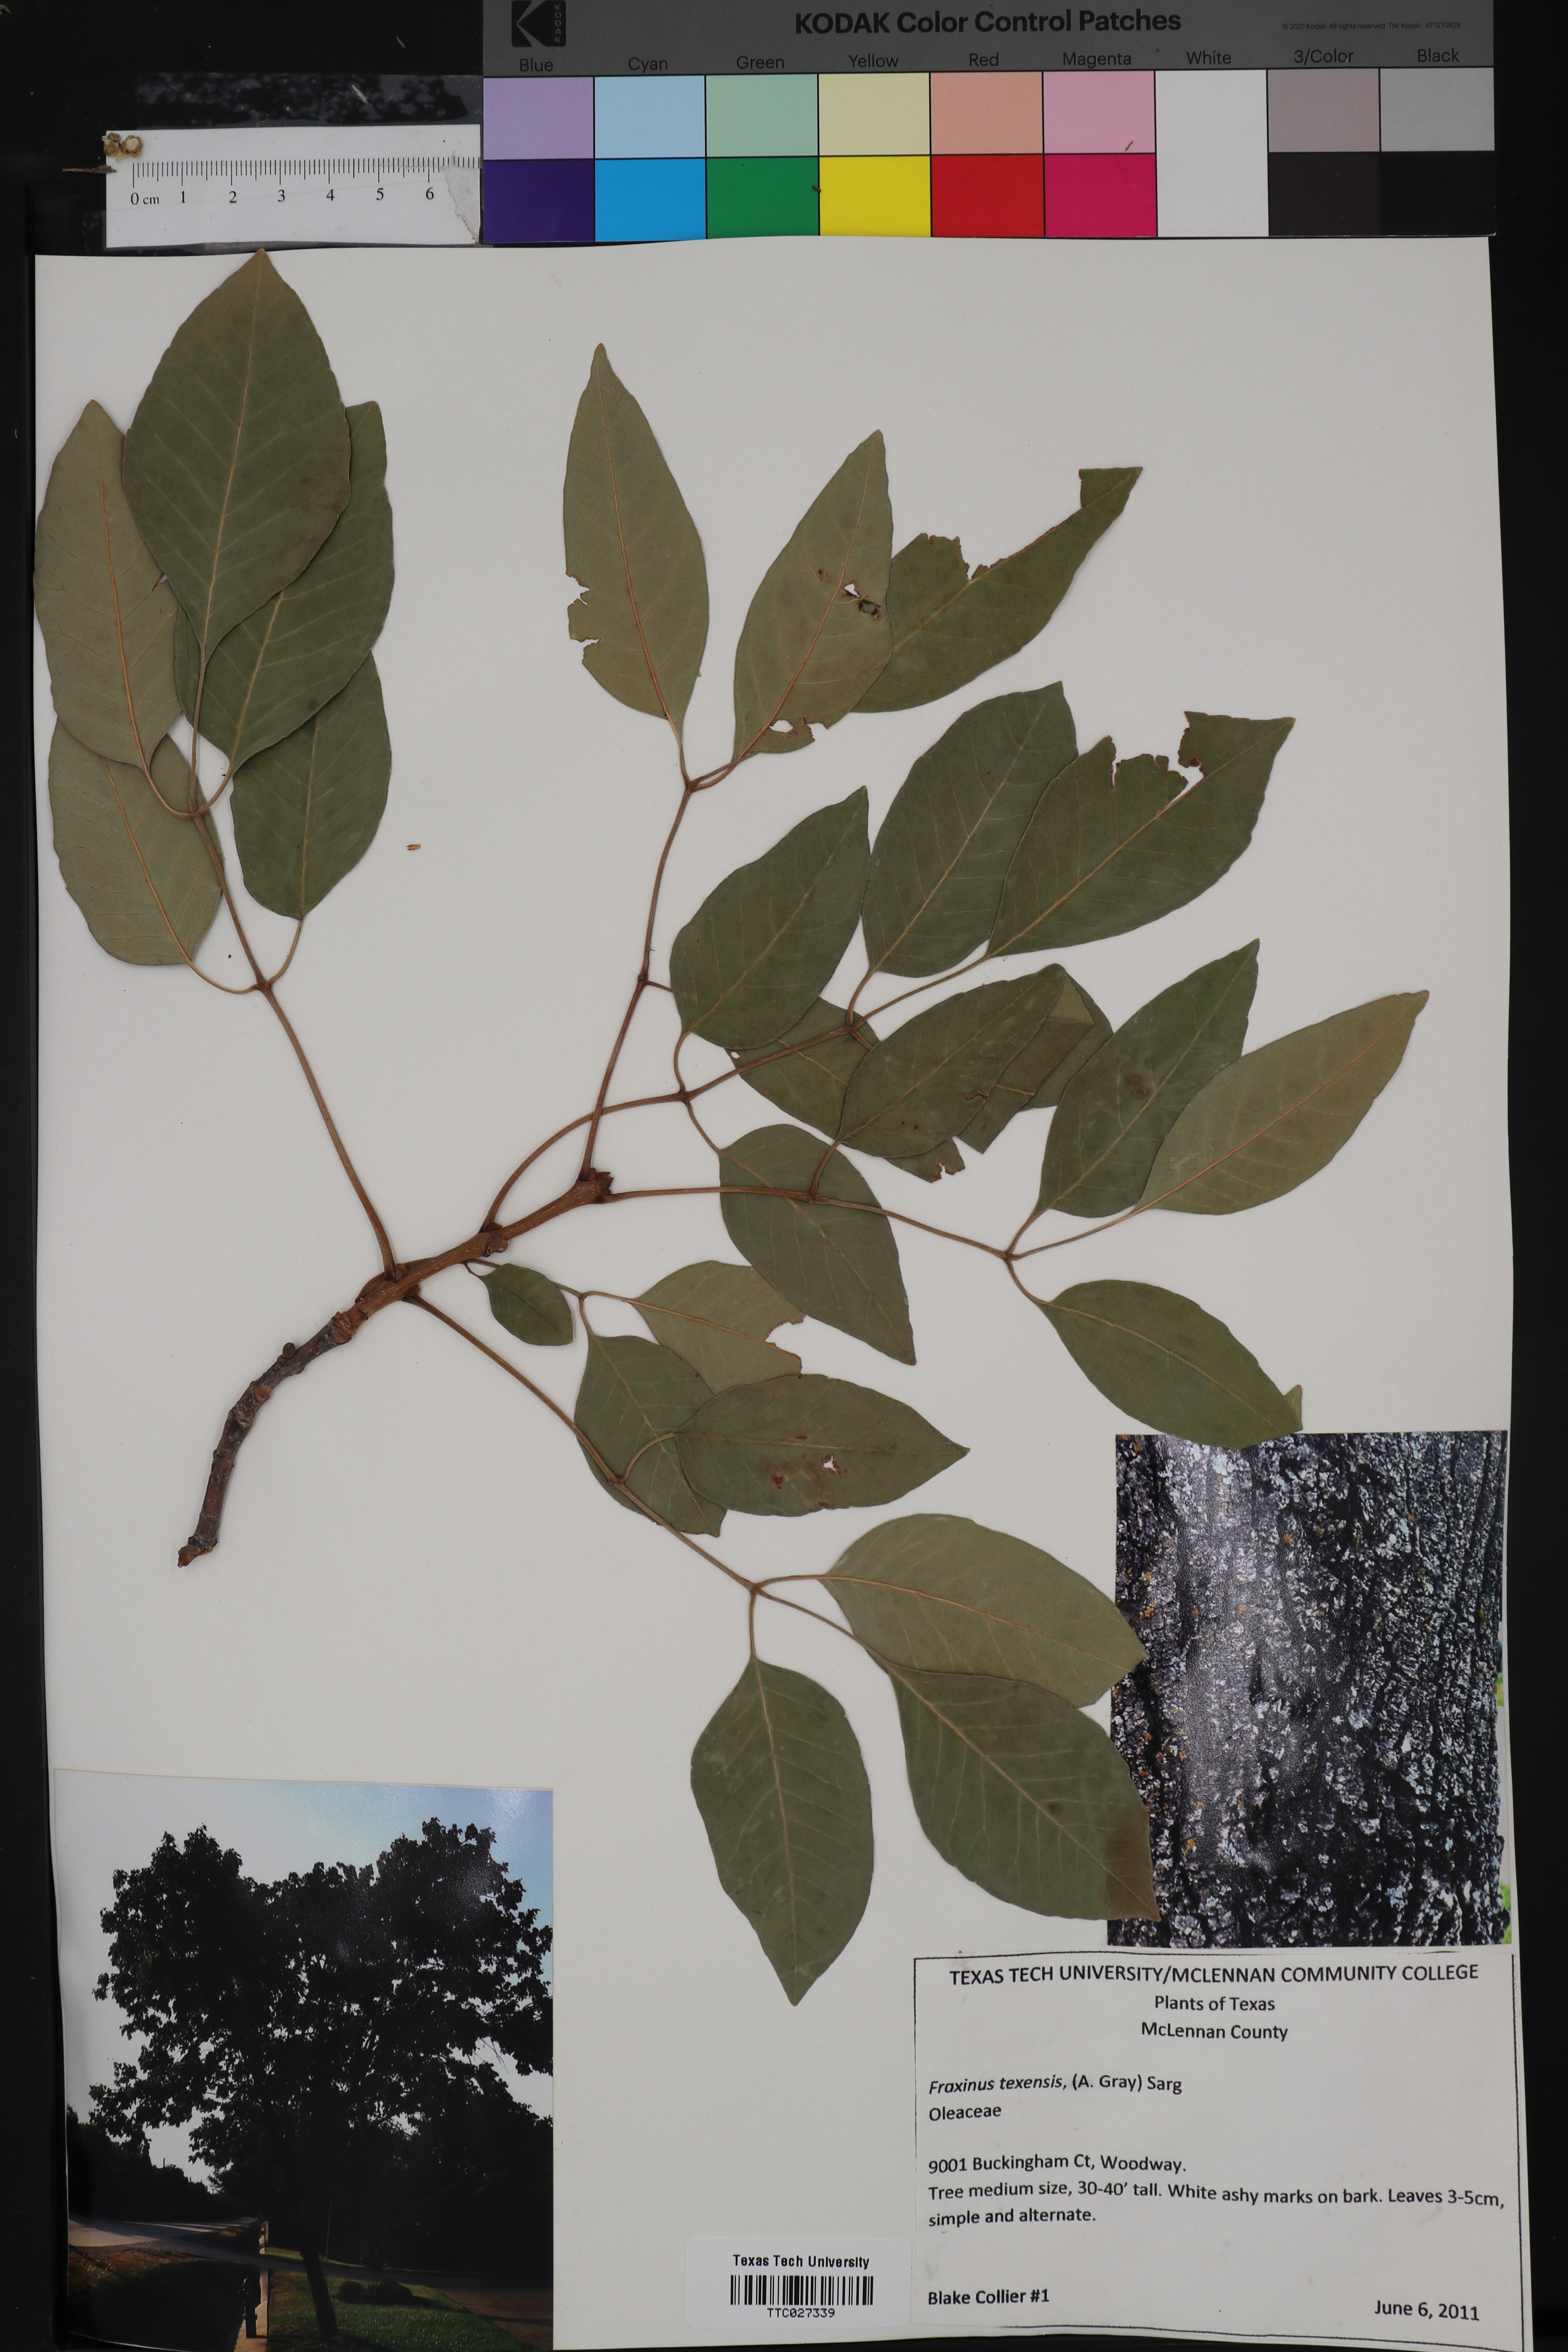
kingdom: Plantae
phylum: Tracheophyta
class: Magnoliopsida
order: Lamiales
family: Oleaceae
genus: Fraxinus
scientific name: Fraxinus albicans
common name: Texas ash
